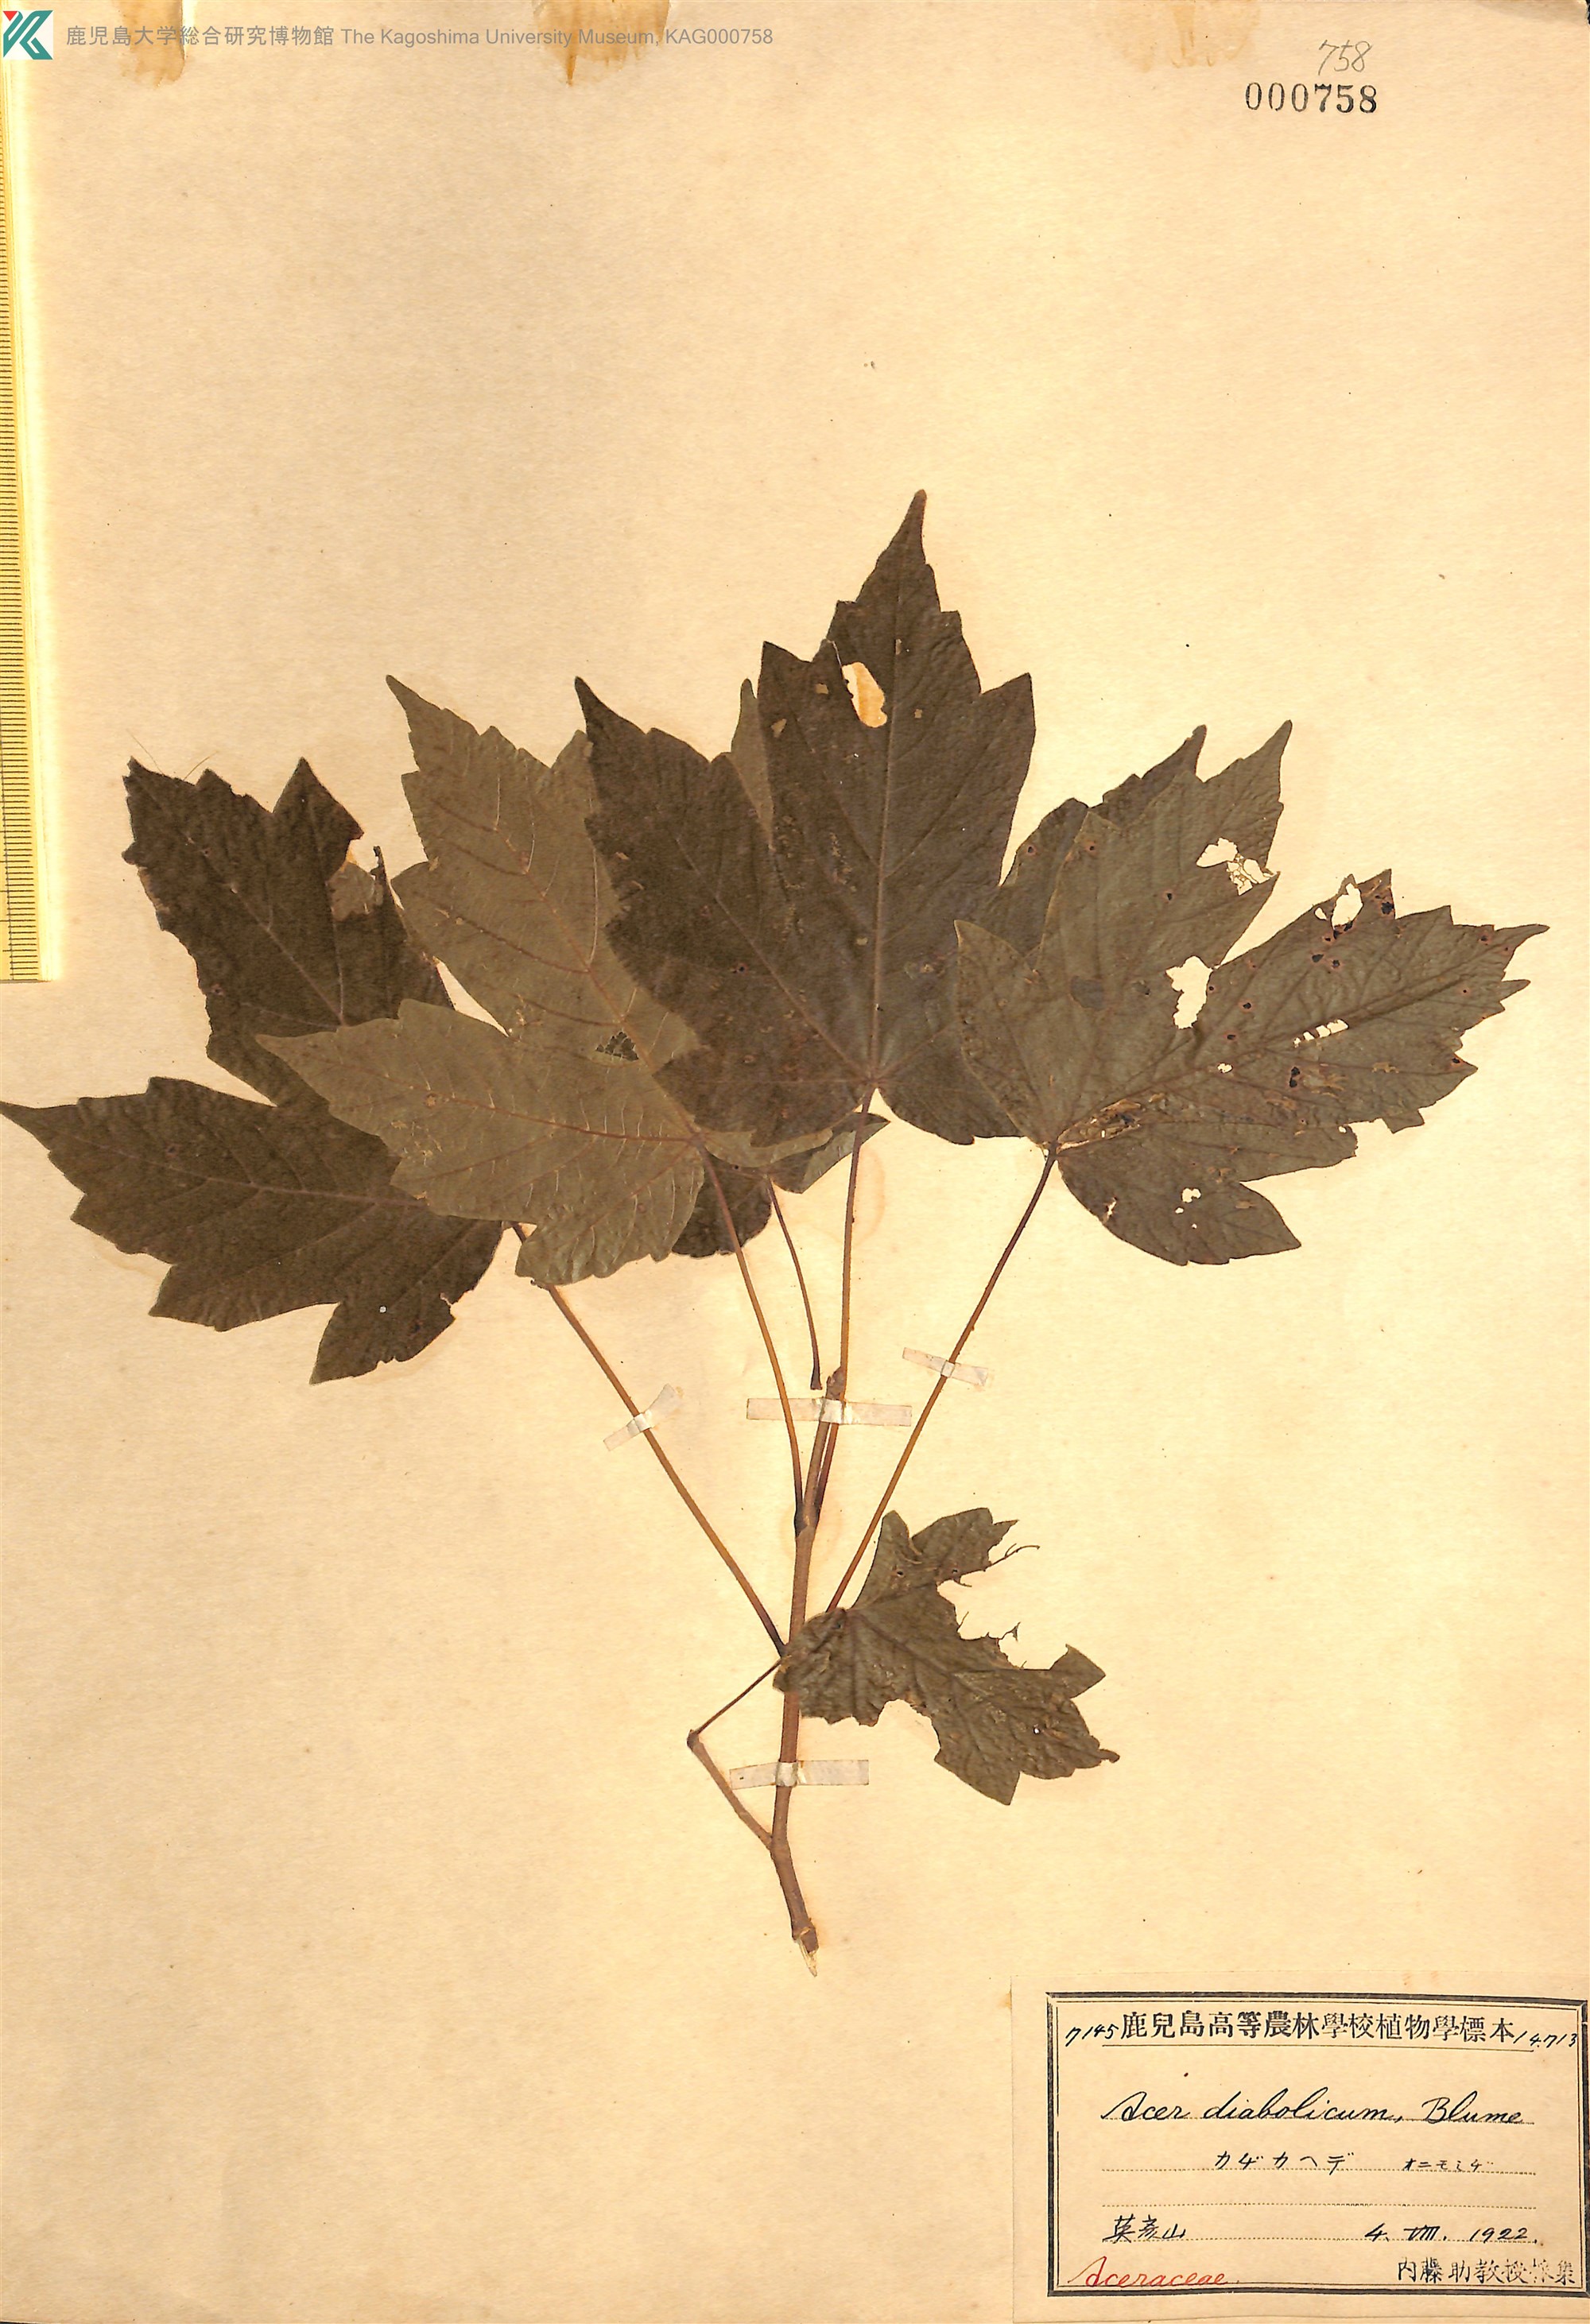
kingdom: Plantae
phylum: Tracheophyta
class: Magnoliopsida
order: Sapindales
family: Sapindaceae
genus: Acer
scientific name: Acer diabolicum
